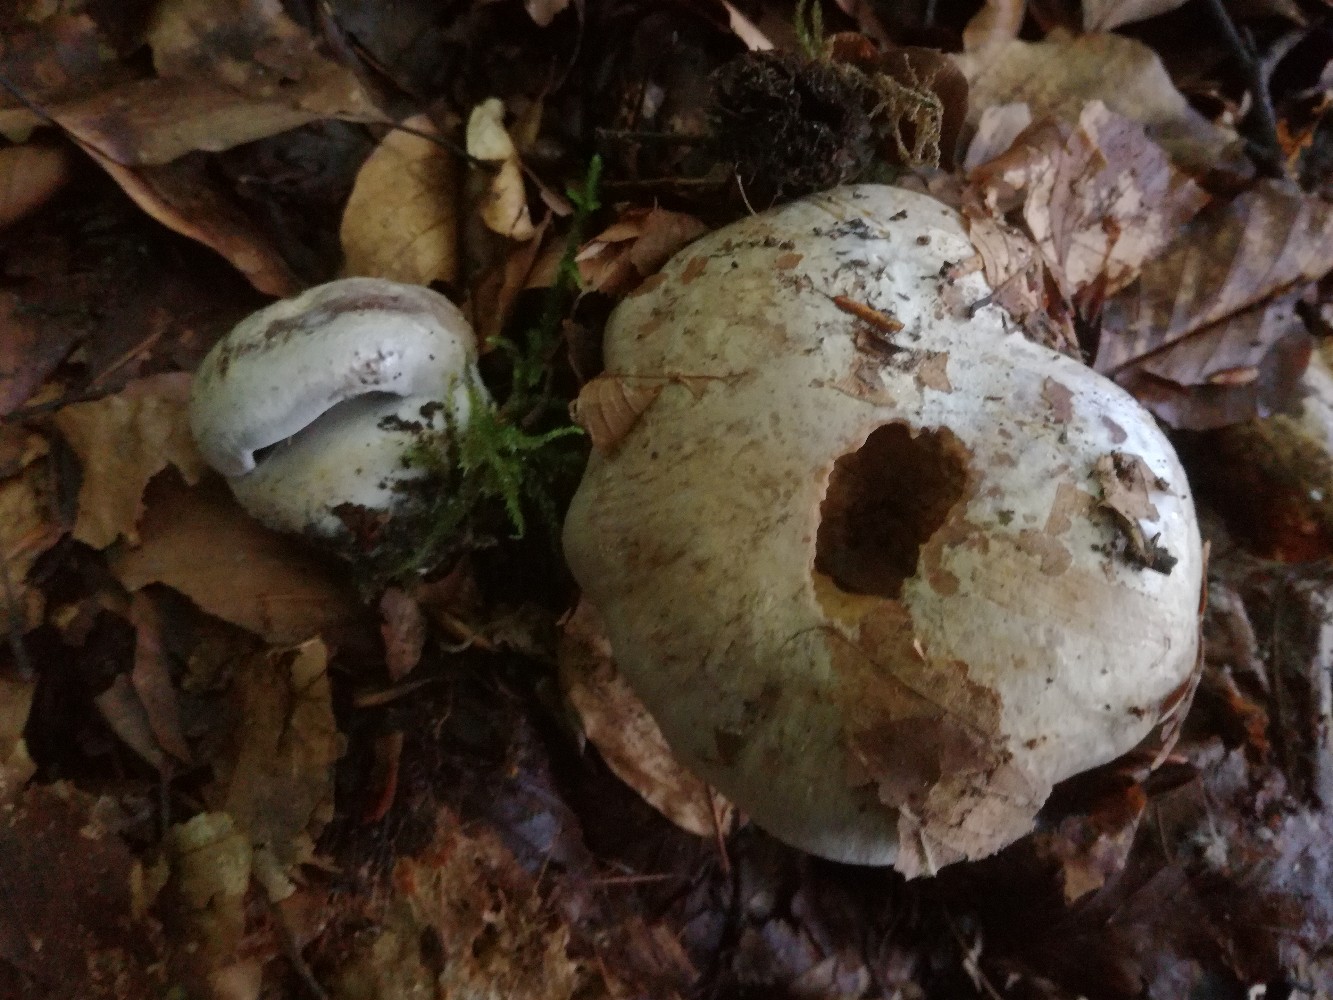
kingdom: Fungi
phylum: Basidiomycota
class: Agaricomycetes
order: Agaricales
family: Cortinariaceae
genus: Cortinarius
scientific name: Cortinarius foetens
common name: stribet slørhat
